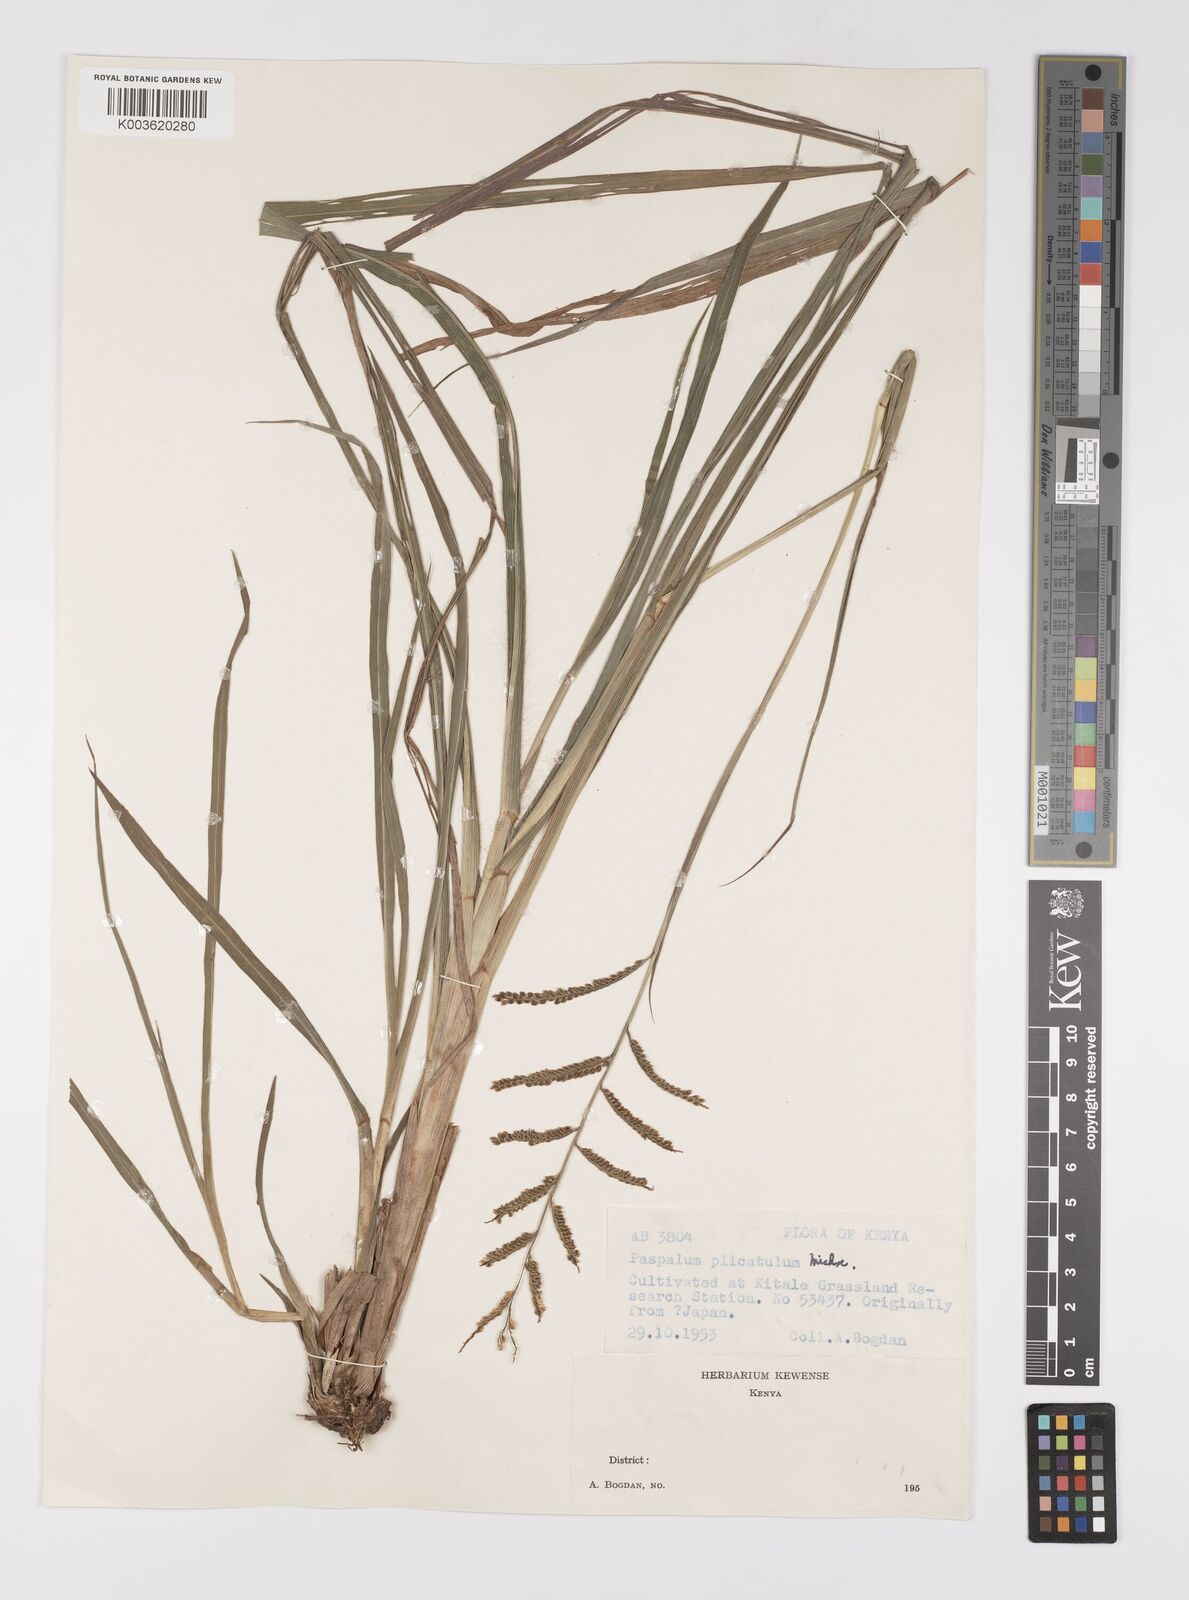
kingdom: Plantae
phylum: Tracheophyta
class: Liliopsida
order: Poales
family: Poaceae
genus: Paspalum
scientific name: Paspalum plicatulum
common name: Top paspalum
